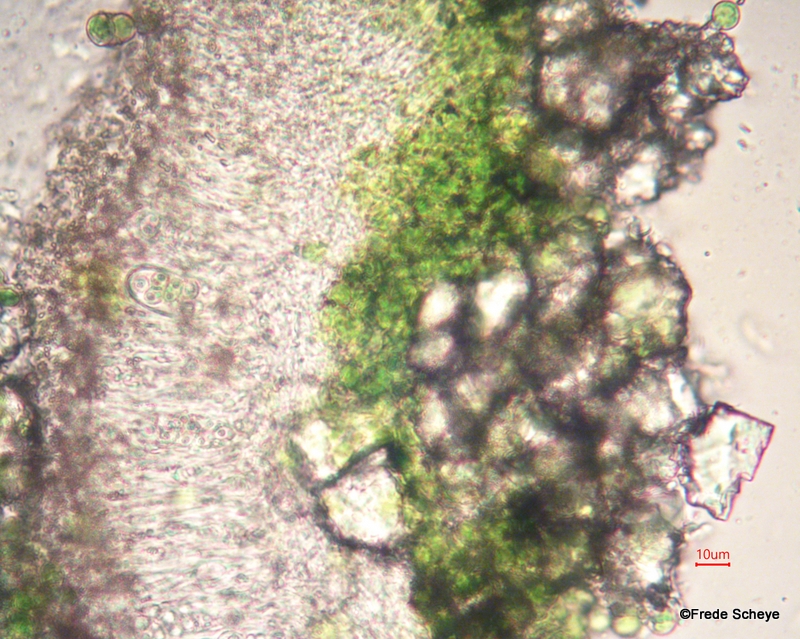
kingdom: Fungi
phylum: Ascomycota
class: Lecanoromycetes
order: Lecanorales
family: Lecanoraceae
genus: Lecanora
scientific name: Lecanora chlarotera
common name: brun kantskivelav
